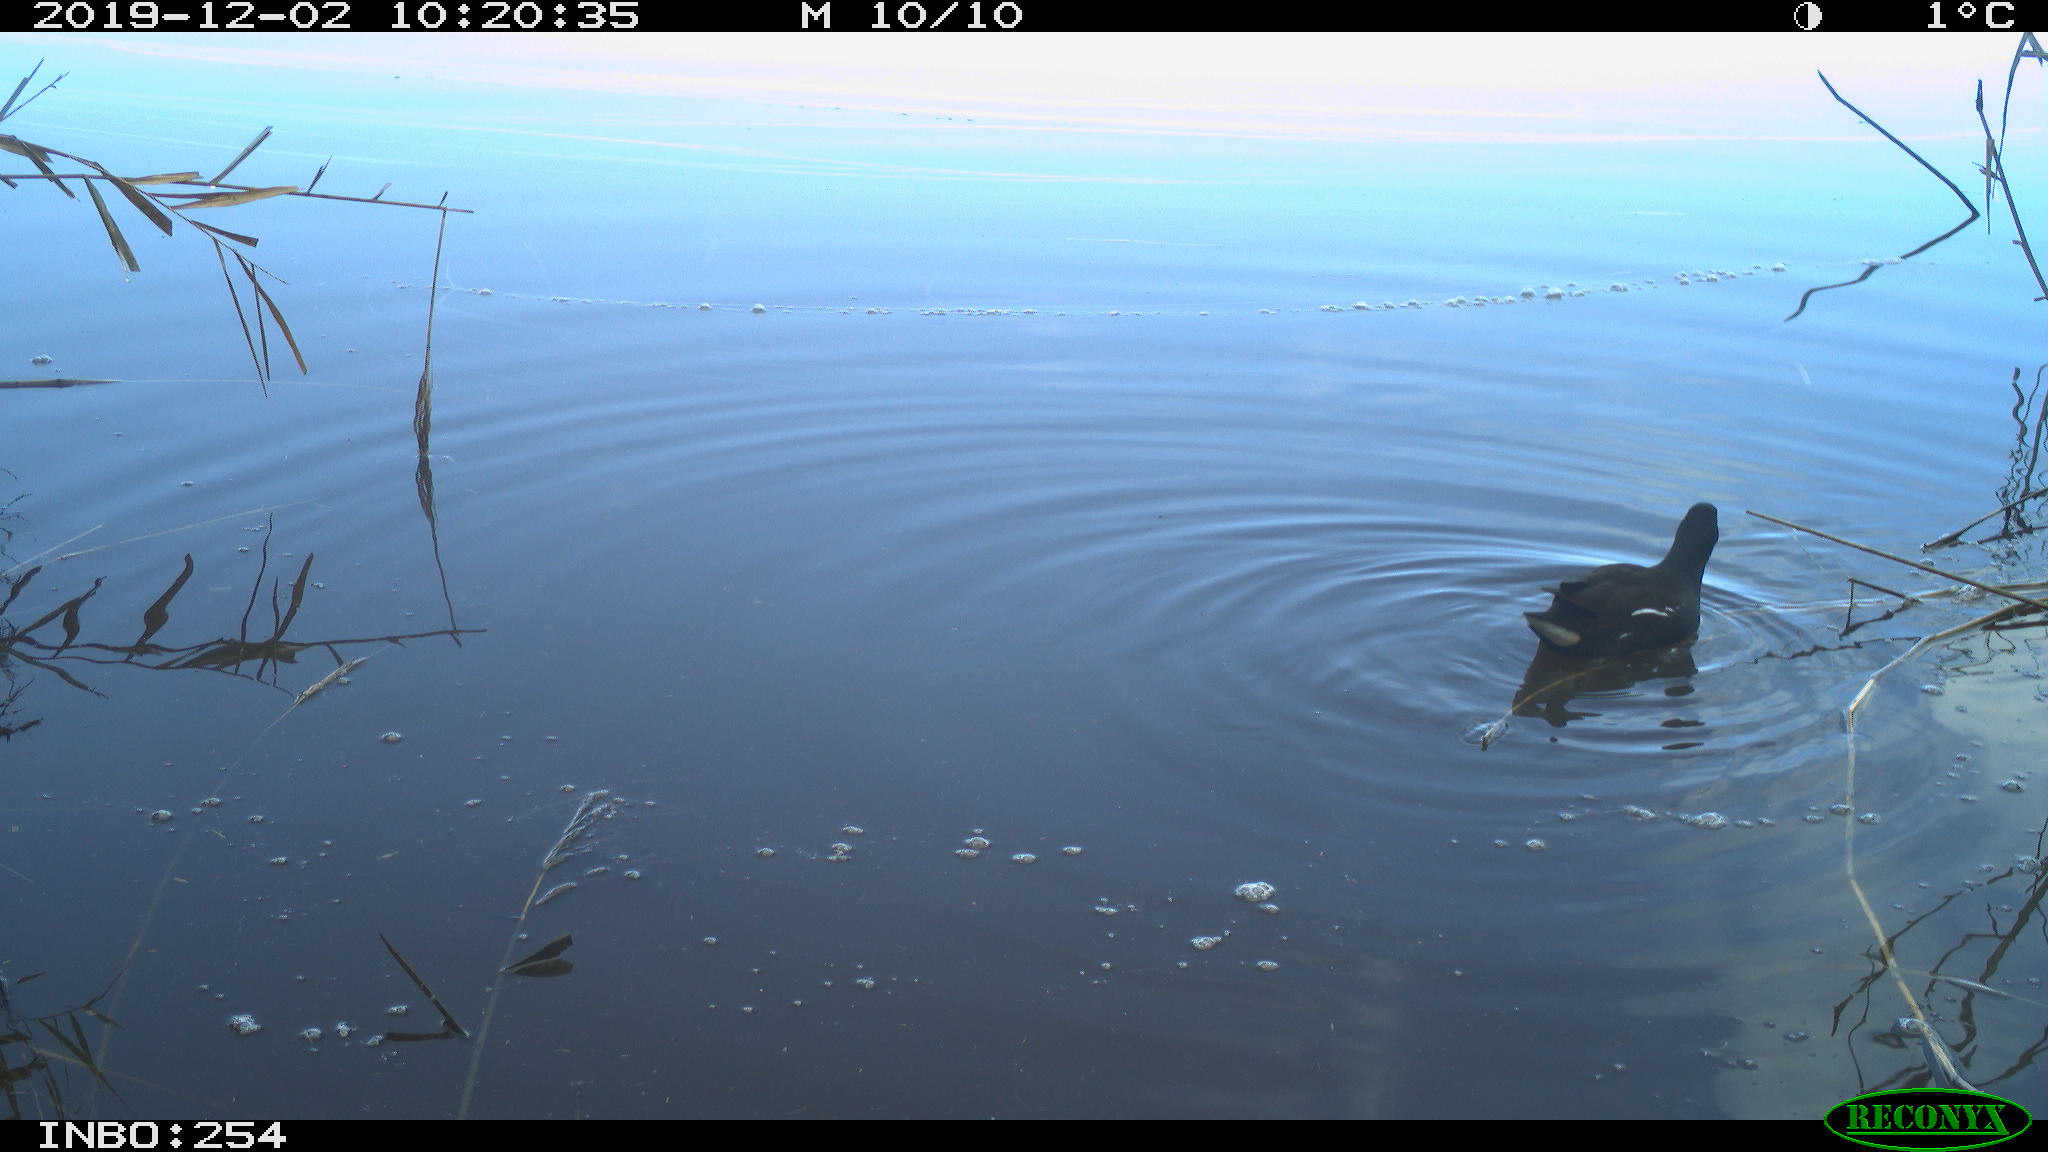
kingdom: Animalia
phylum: Chordata
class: Aves
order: Gruiformes
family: Rallidae
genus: Gallinula
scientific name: Gallinula chloropus
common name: Common moorhen
